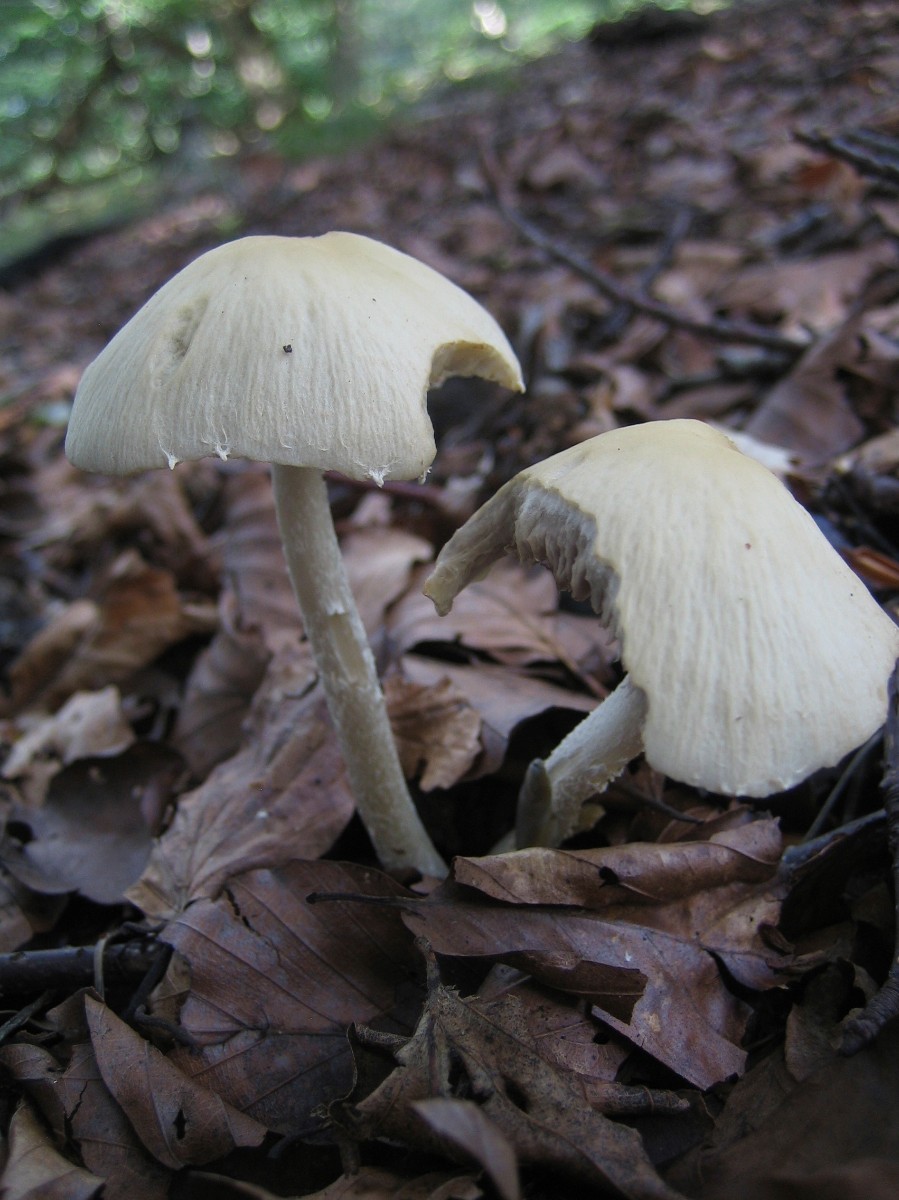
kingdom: Fungi
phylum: Basidiomycota
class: Agaricomycetes
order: Agaricales
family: Psathyrellaceae
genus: Candolleomyces
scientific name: Candolleomyces candolleanus
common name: Candolles mørkhat
